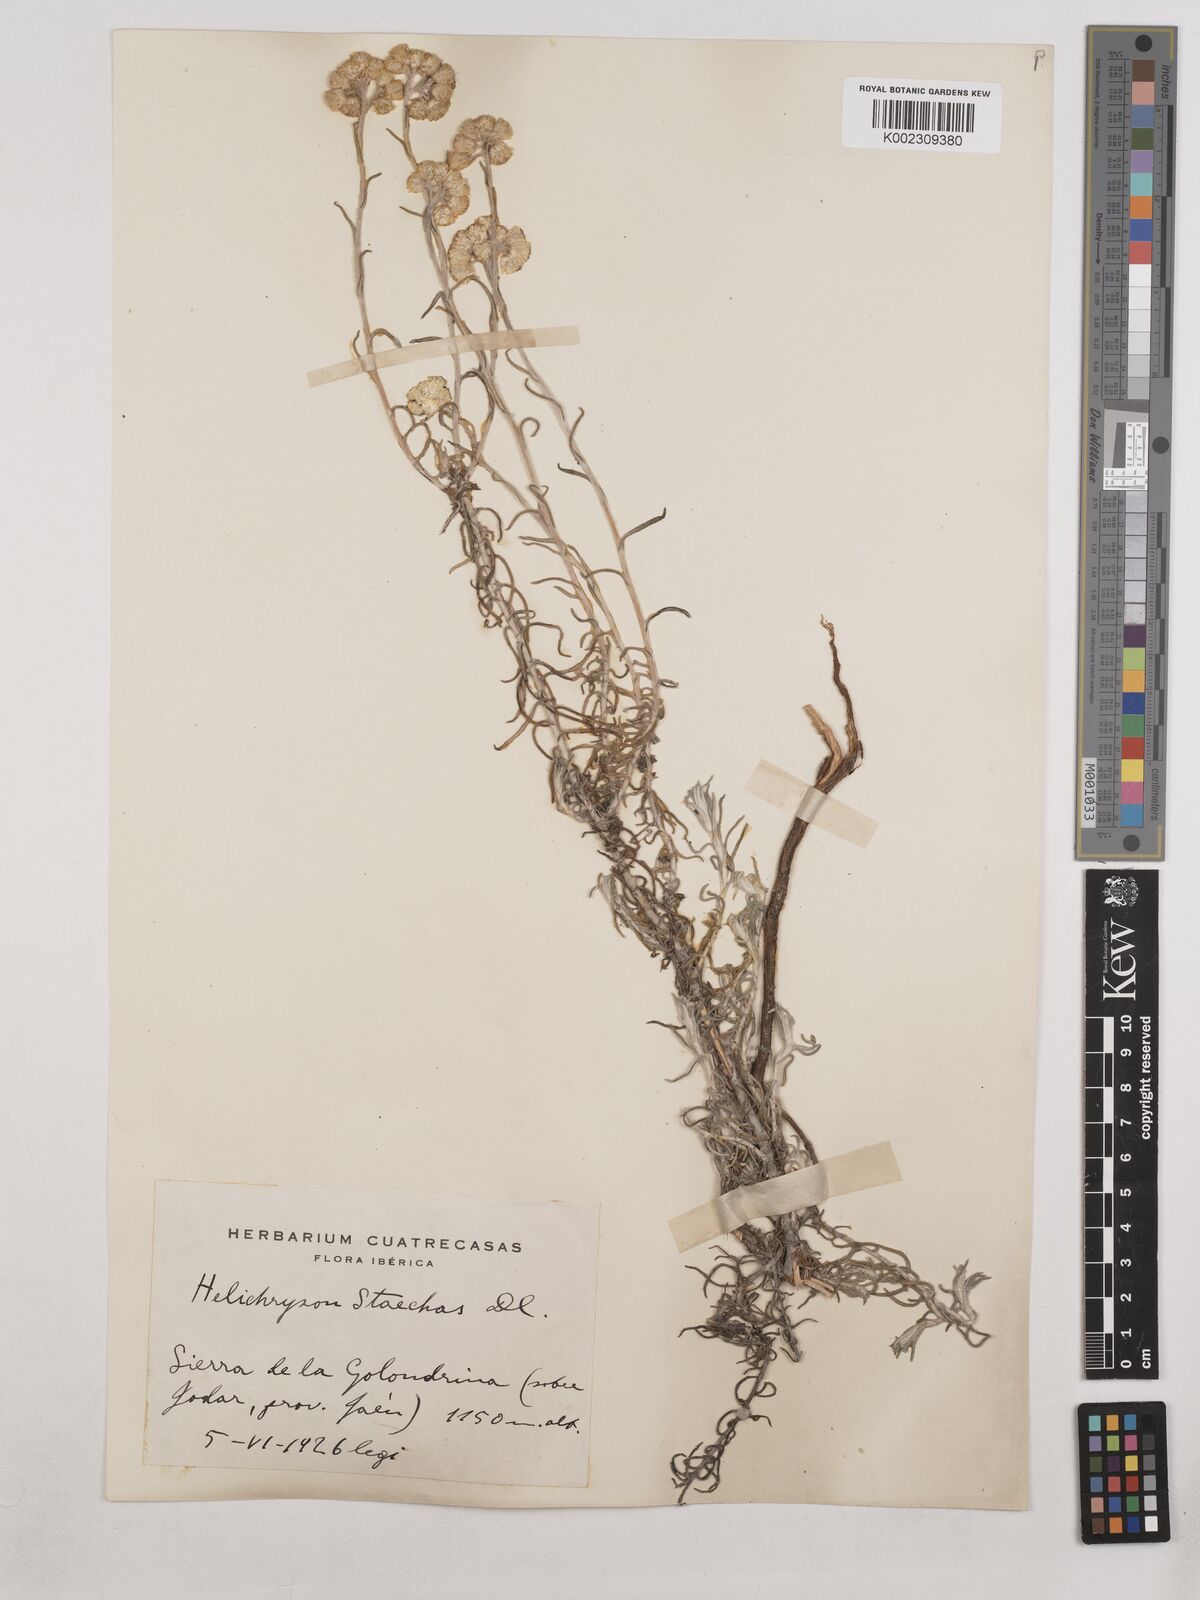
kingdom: Plantae
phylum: Tracheophyta
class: Magnoliopsida
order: Asterales
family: Asteraceae
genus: Helichrysum
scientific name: Helichrysum
